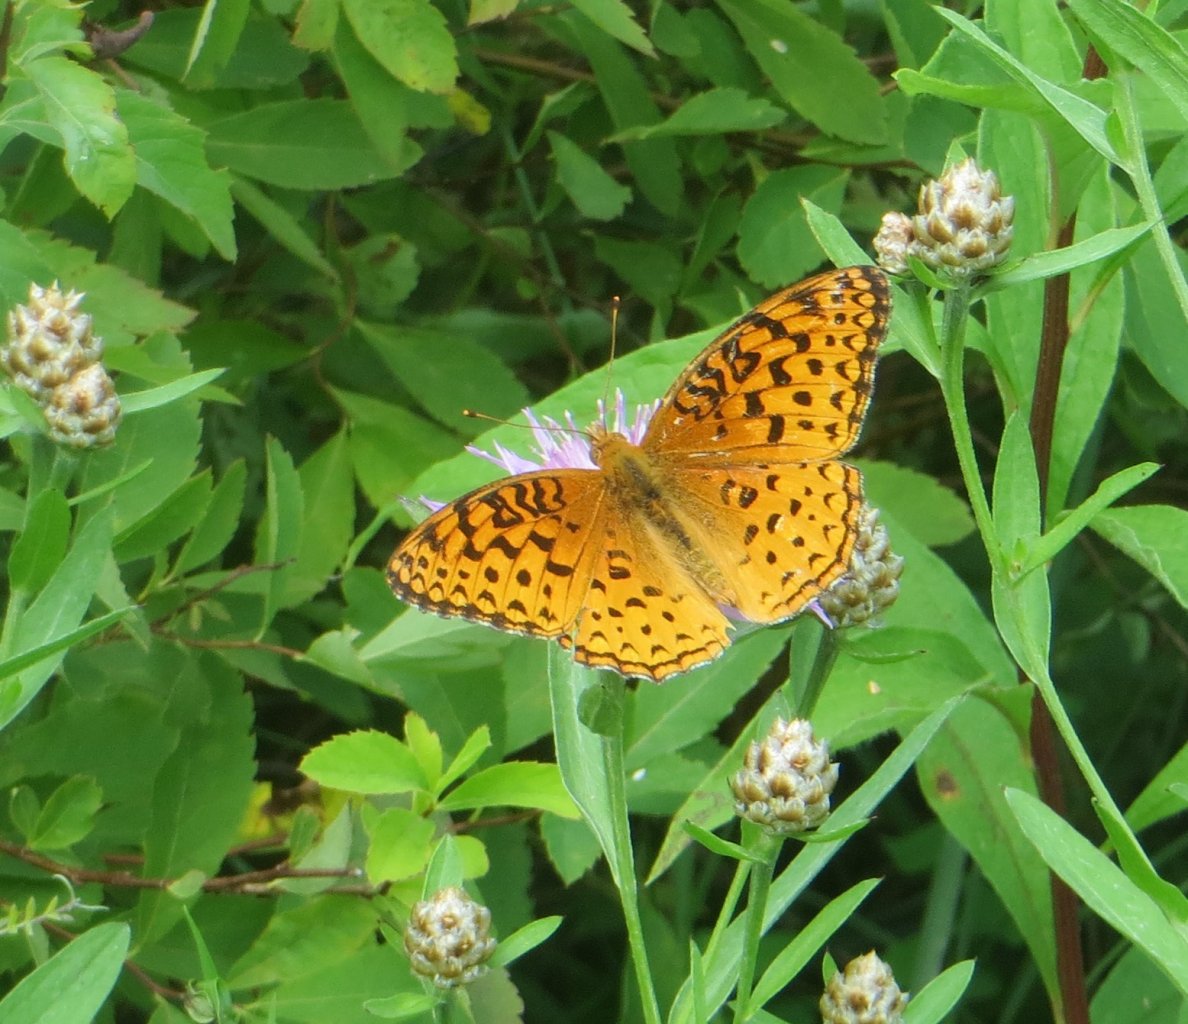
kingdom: Animalia
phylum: Arthropoda
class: Insecta
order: Lepidoptera
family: Nymphalidae
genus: Speyeria
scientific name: Speyeria aphrodite
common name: Aphrodite Fritillary
